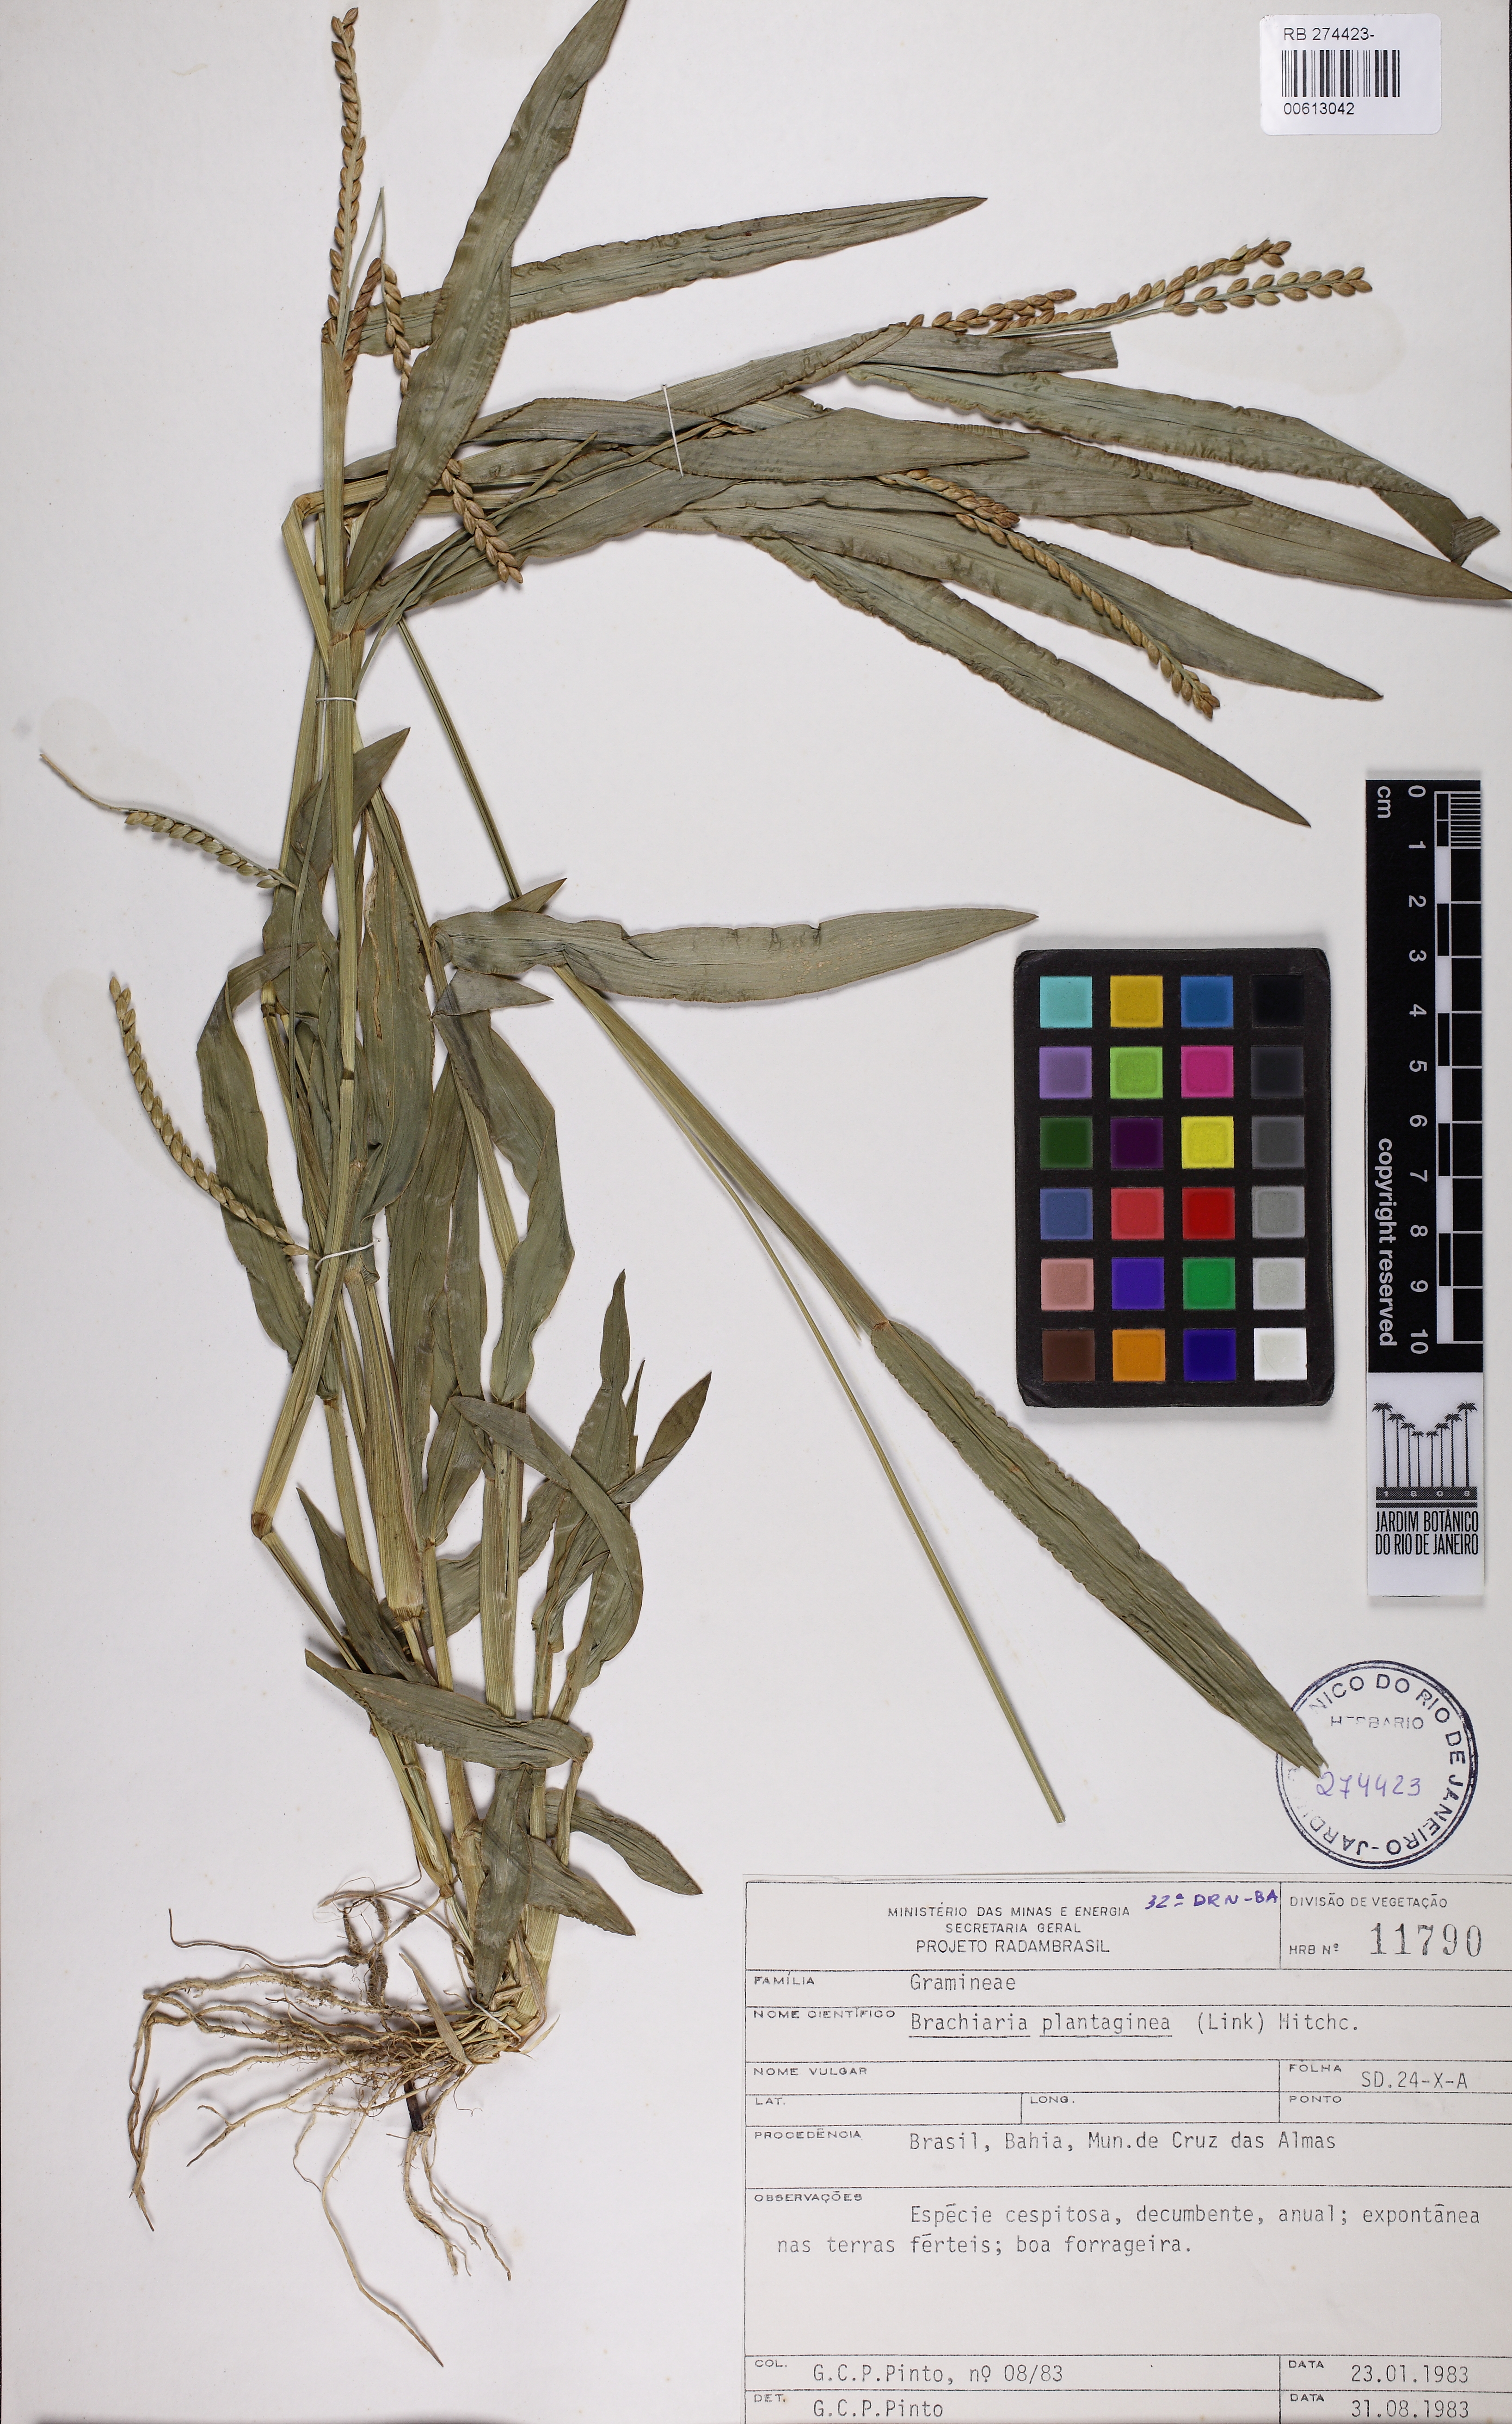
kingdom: Plantae
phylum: Tracheophyta
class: Liliopsida
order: Poales
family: Poaceae
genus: Urochloa
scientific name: Urochloa plantaginea
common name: Plantain signalgrass
